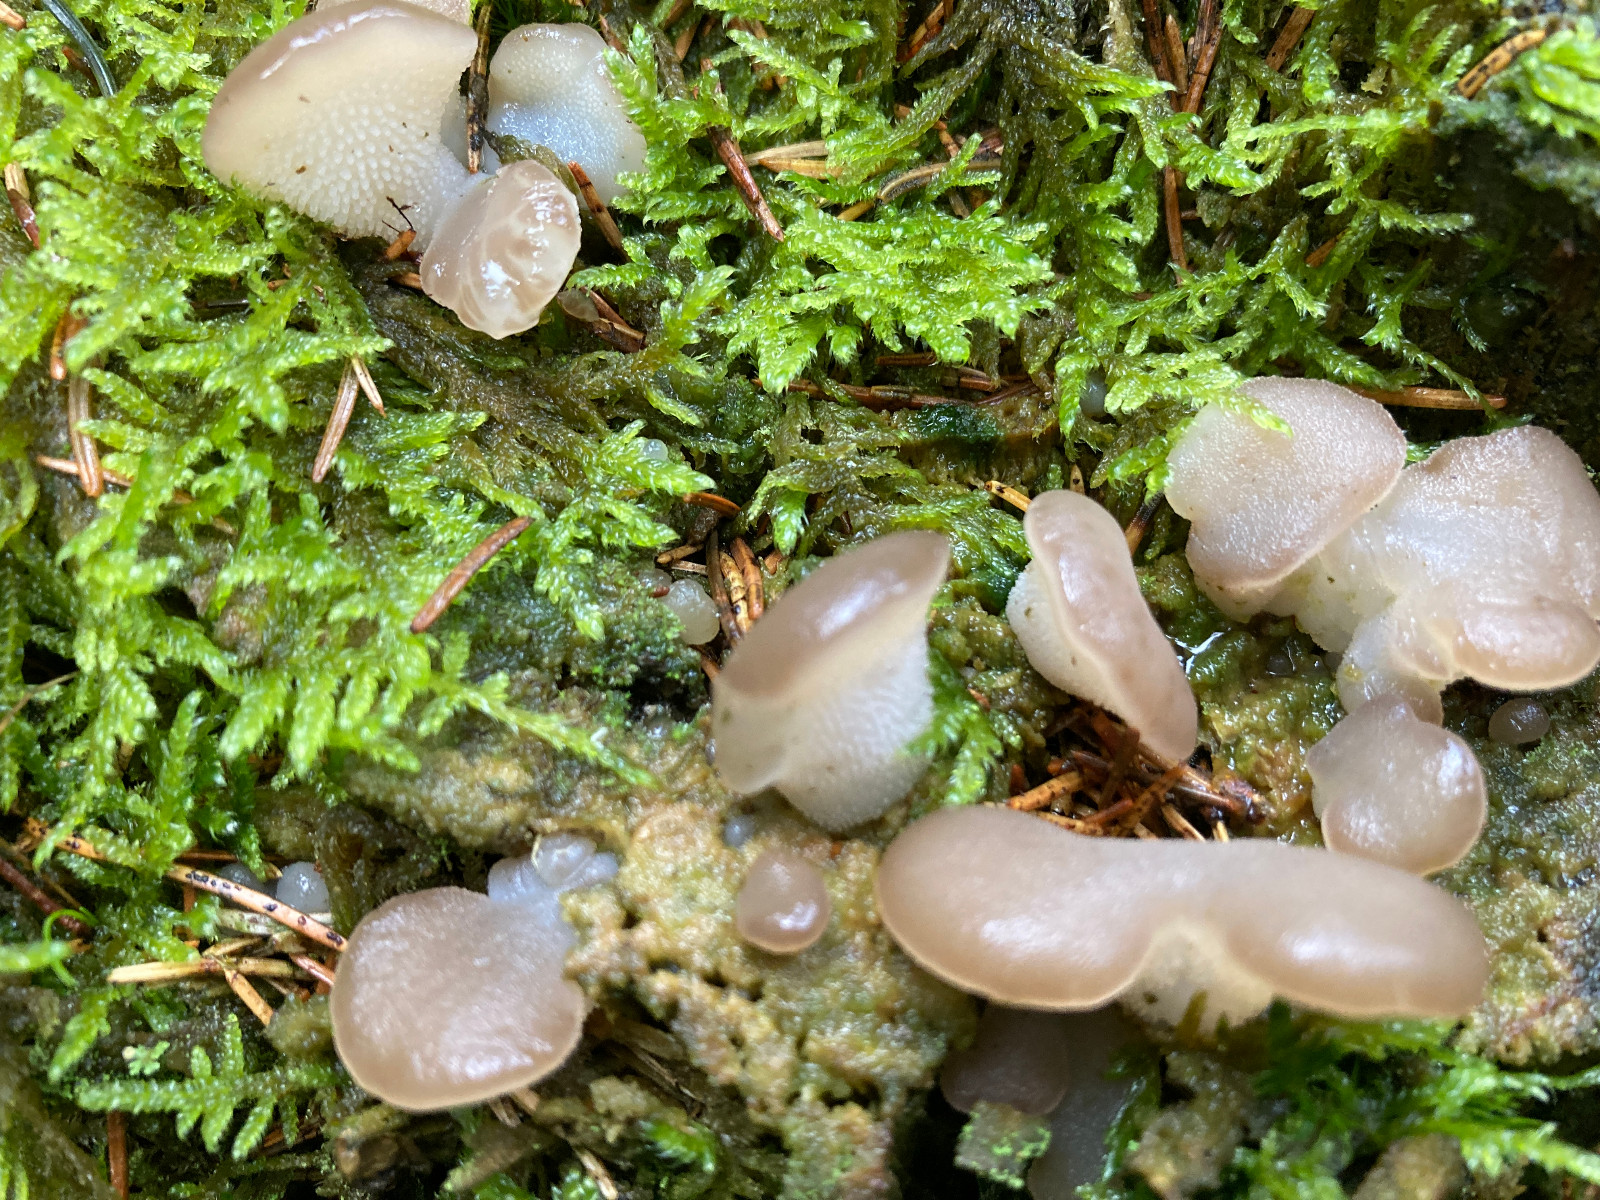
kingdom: Fungi
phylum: Basidiomycota
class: Agaricomycetes
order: Auriculariales
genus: Pseudohydnum
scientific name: Pseudohydnum gelatinosum
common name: bævretand
